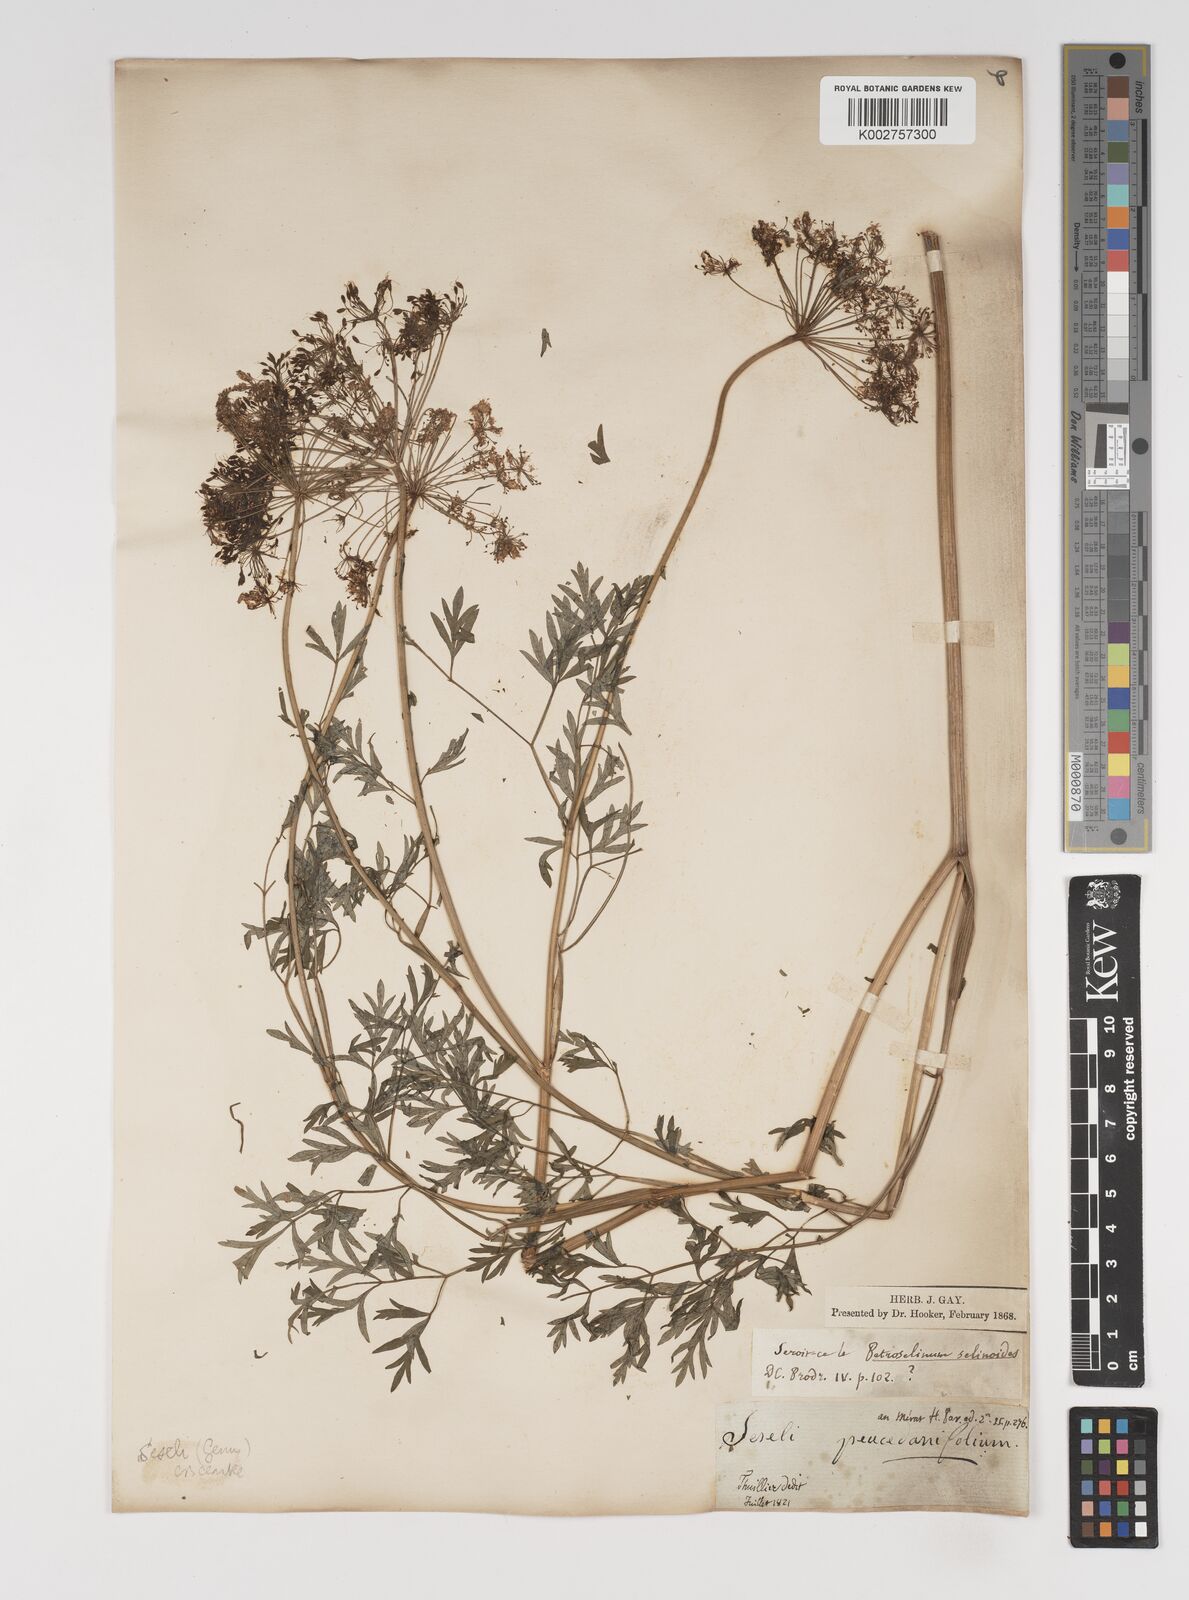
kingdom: Plantae
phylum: Tracheophyta
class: Magnoliopsida
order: Apiales
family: Apiaceae
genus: Seseli
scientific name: Seseli besserianum
